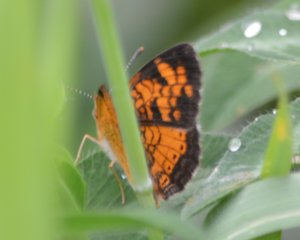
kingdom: Animalia
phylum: Arthropoda
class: Insecta
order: Lepidoptera
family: Nymphalidae
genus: Phyciodes
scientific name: Phyciodes tharos
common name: Northern Crescent
